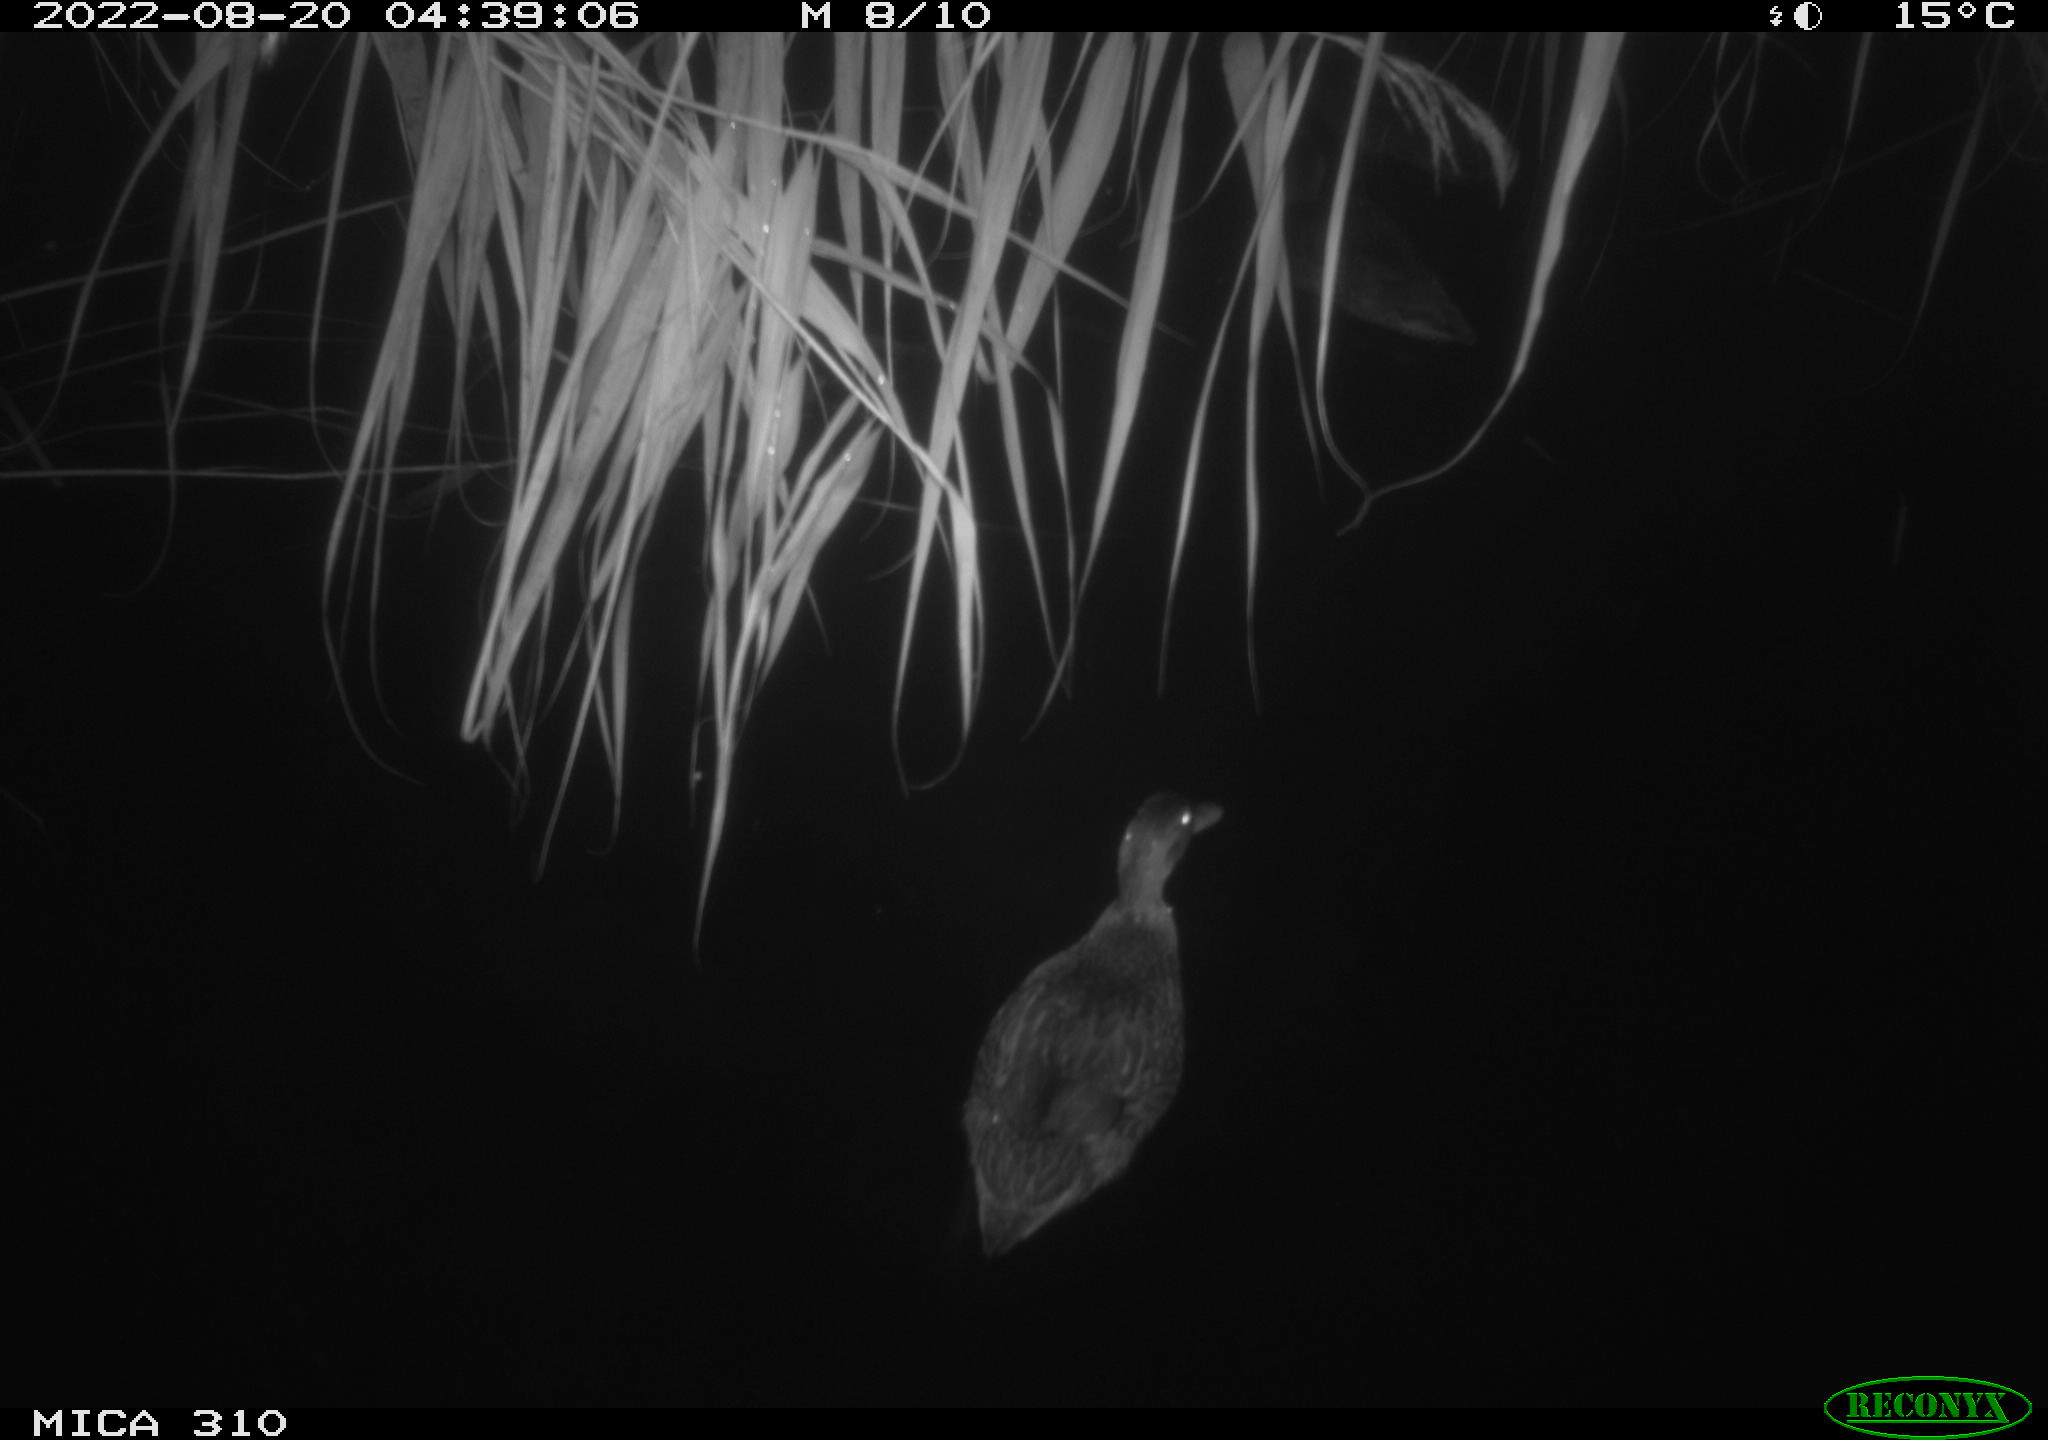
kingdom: Animalia
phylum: Chordata
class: Aves
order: Anseriformes
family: Anatidae
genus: Anas
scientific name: Anas platyrhynchos
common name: Mallard
